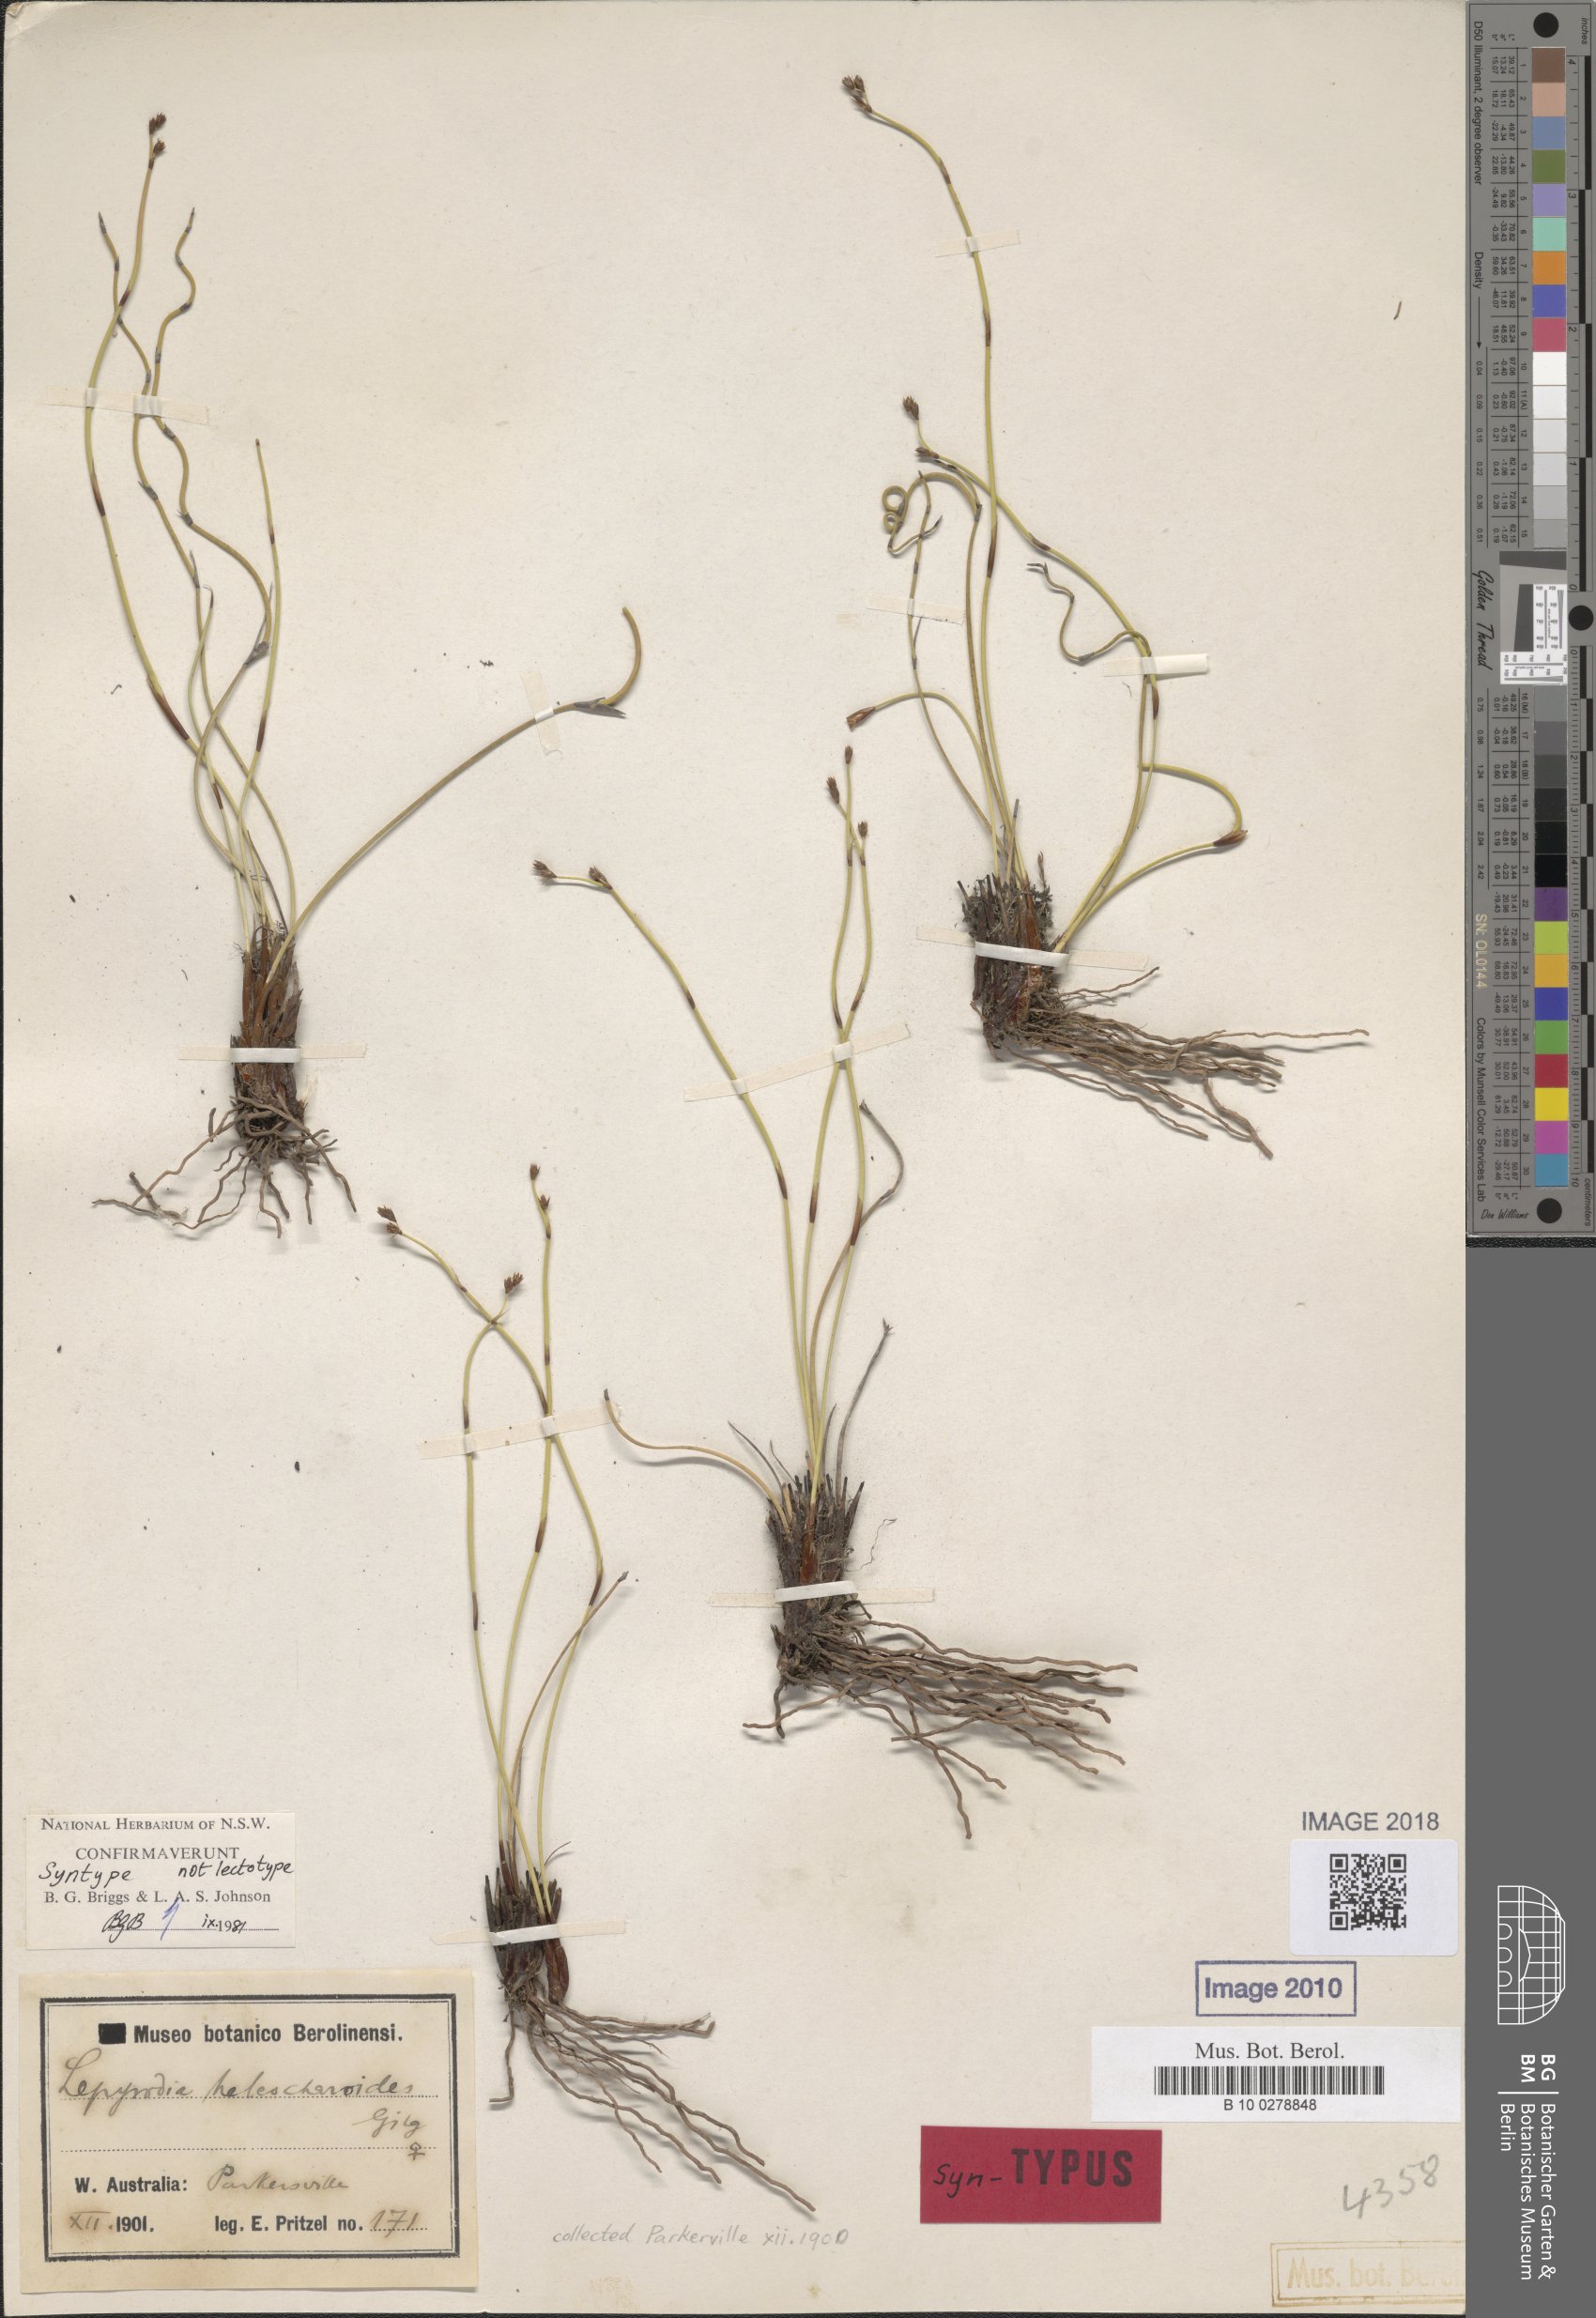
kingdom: Plantae
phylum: Tracheophyta
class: Liliopsida
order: Poales
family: Restionaceae
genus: Lepyrodia
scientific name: Lepyrodia heleocharoides
